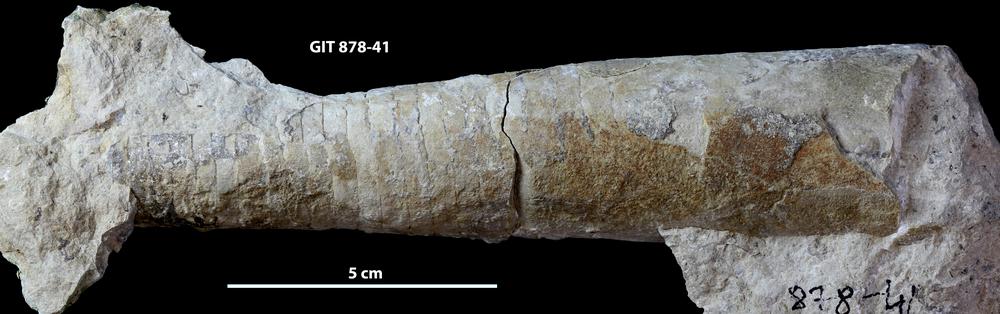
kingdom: Animalia
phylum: Mollusca
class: Cephalopoda
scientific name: Cephalopoda
